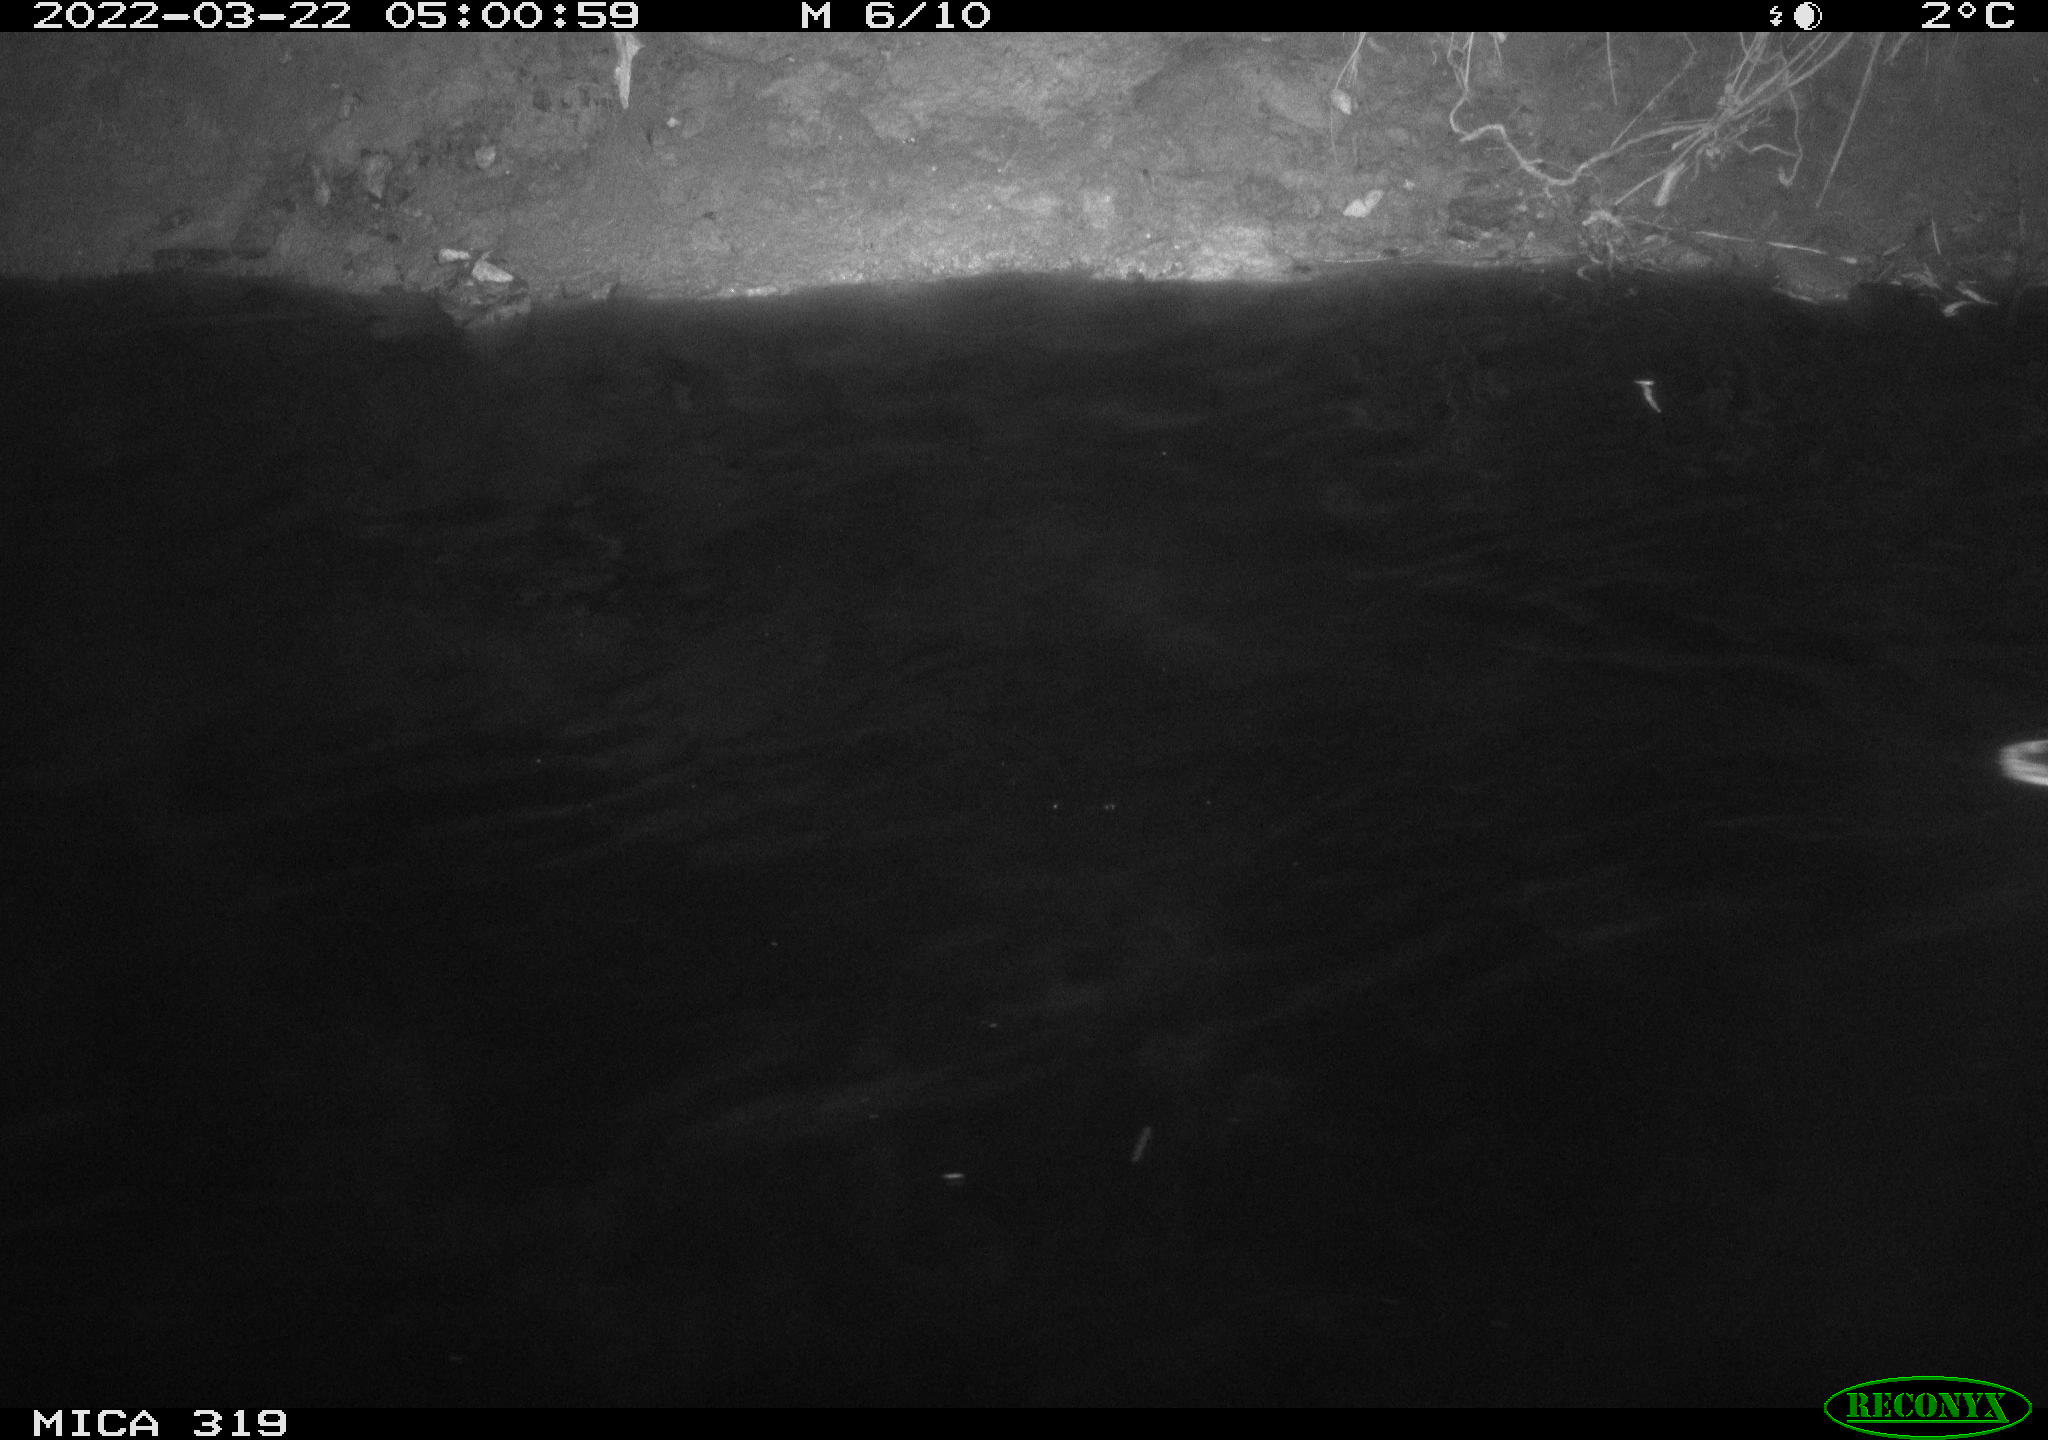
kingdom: Animalia
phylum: Chordata
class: Aves
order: Anseriformes
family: Anatidae
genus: Anas
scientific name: Anas platyrhynchos
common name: Mallard
